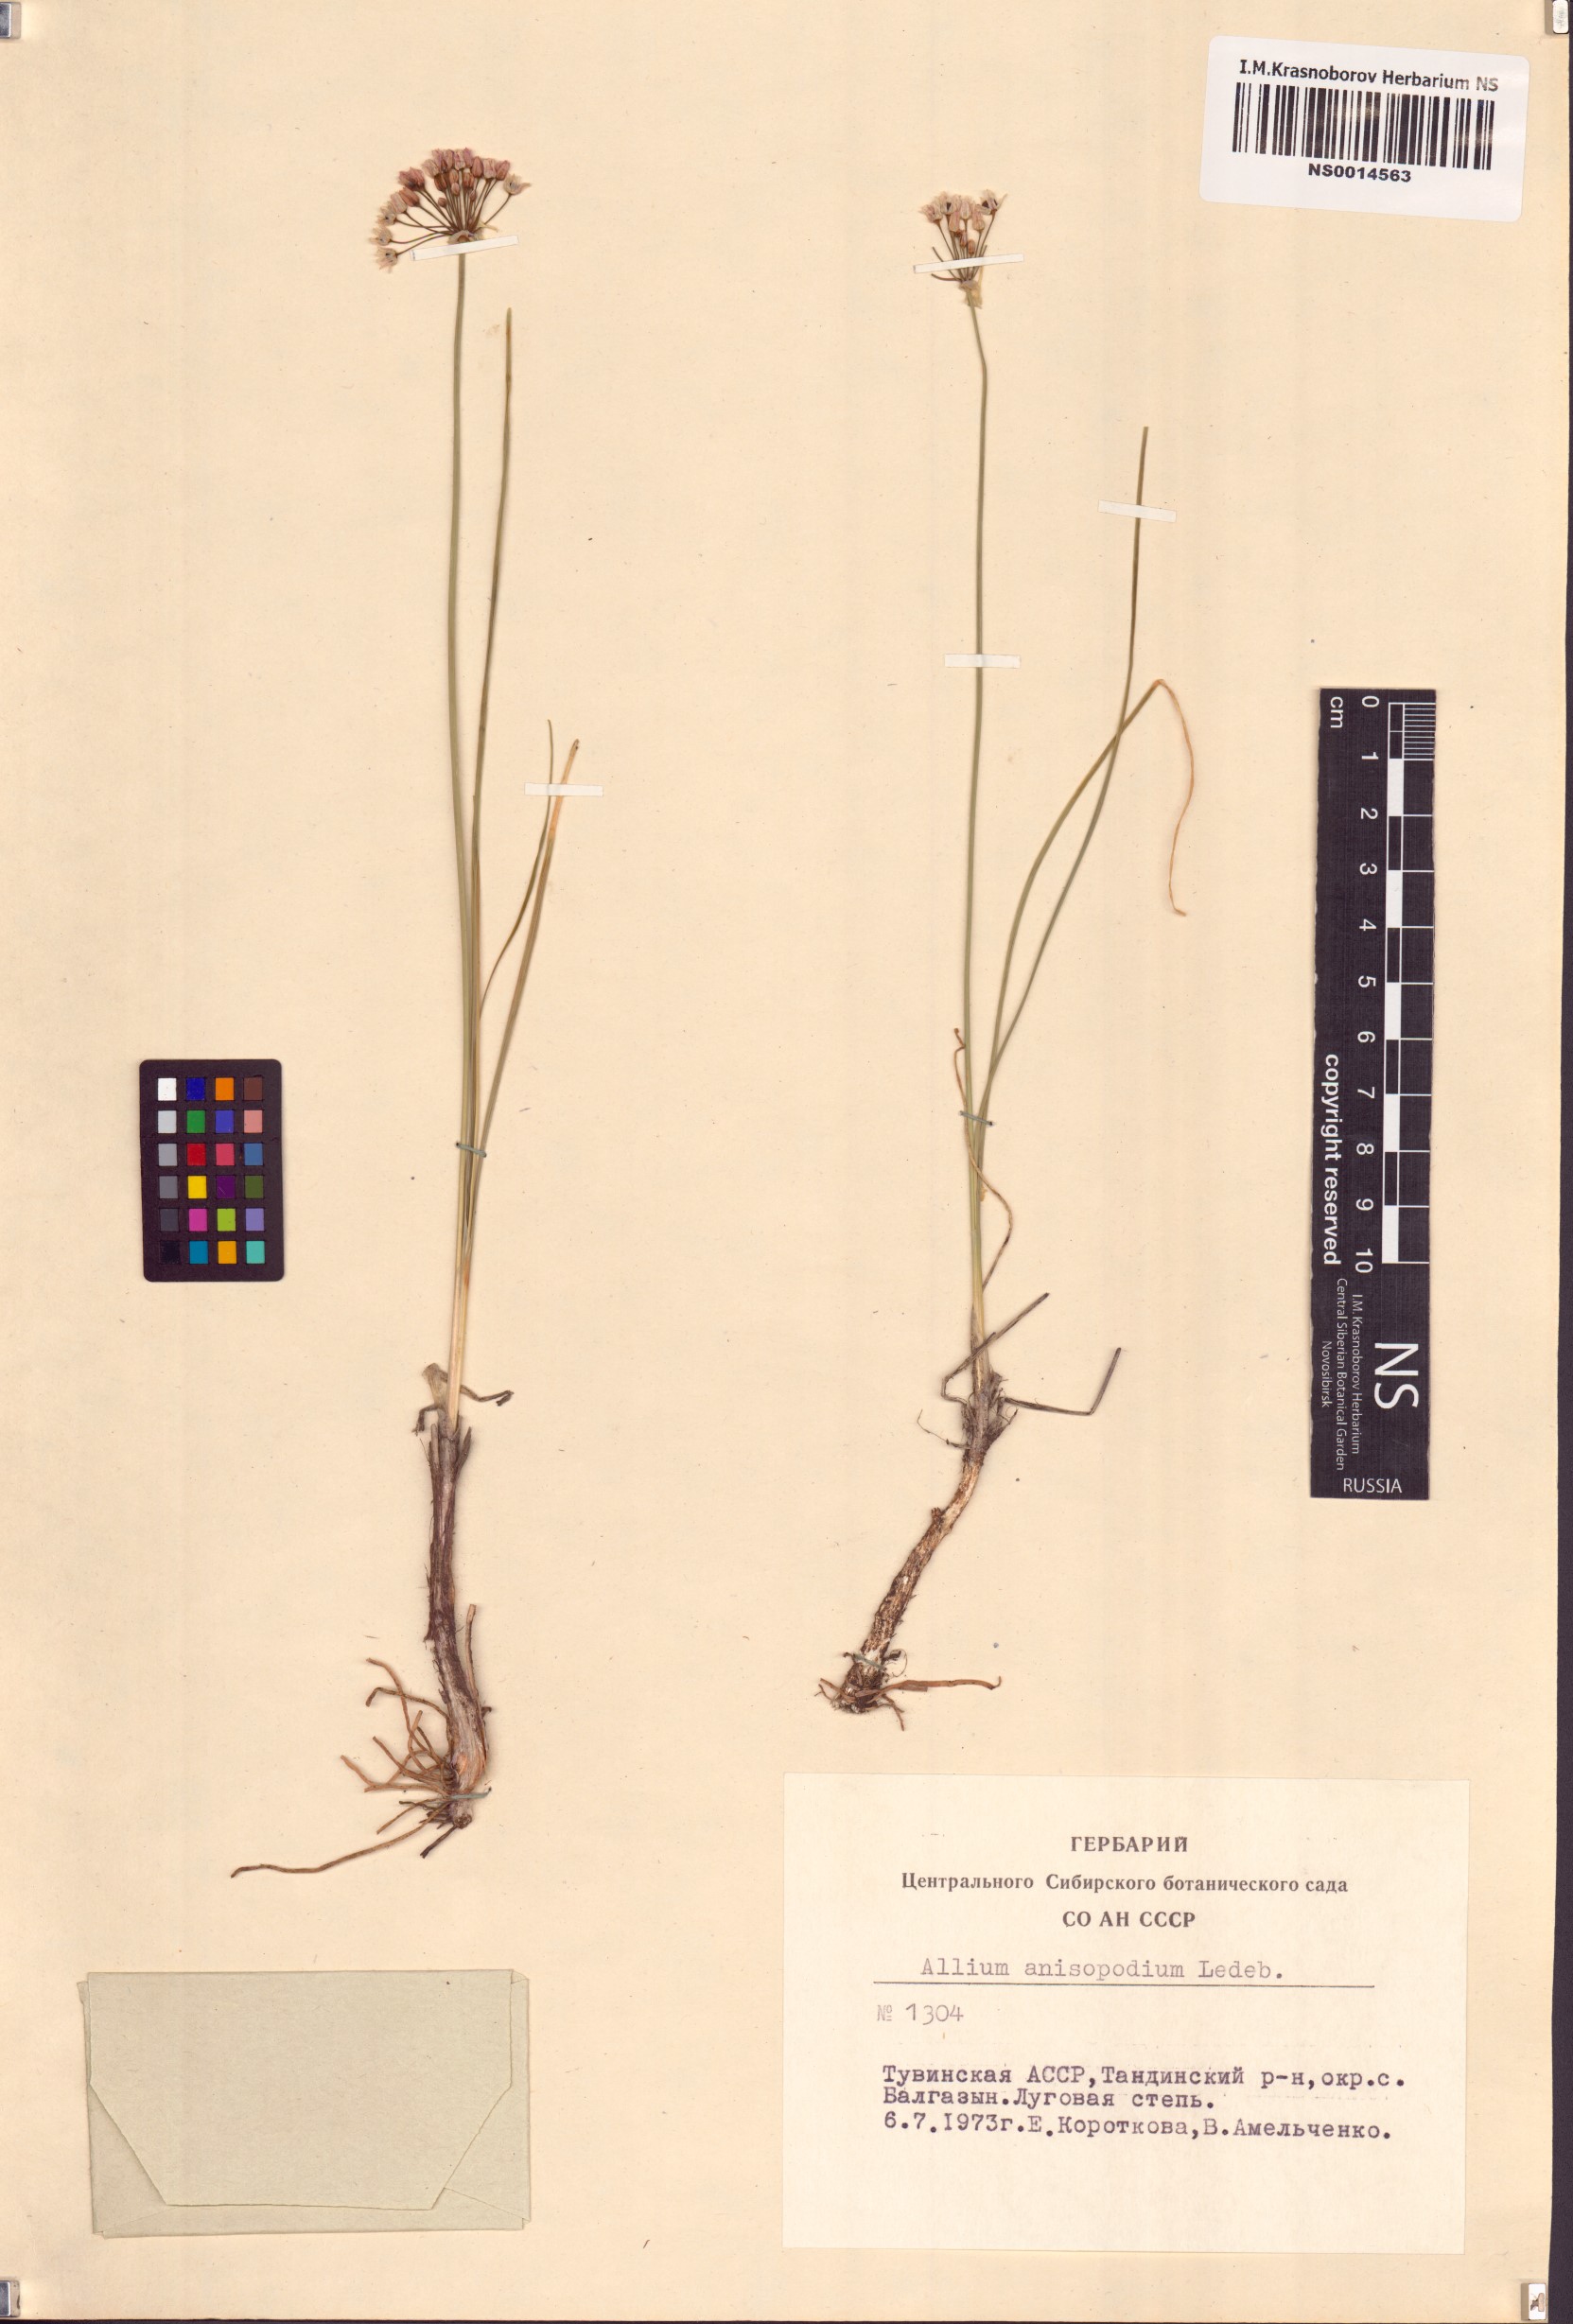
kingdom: Plantae
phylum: Tracheophyta
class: Liliopsida
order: Asparagales
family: Amaryllidaceae
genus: Allium
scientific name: Allium anisopodium
